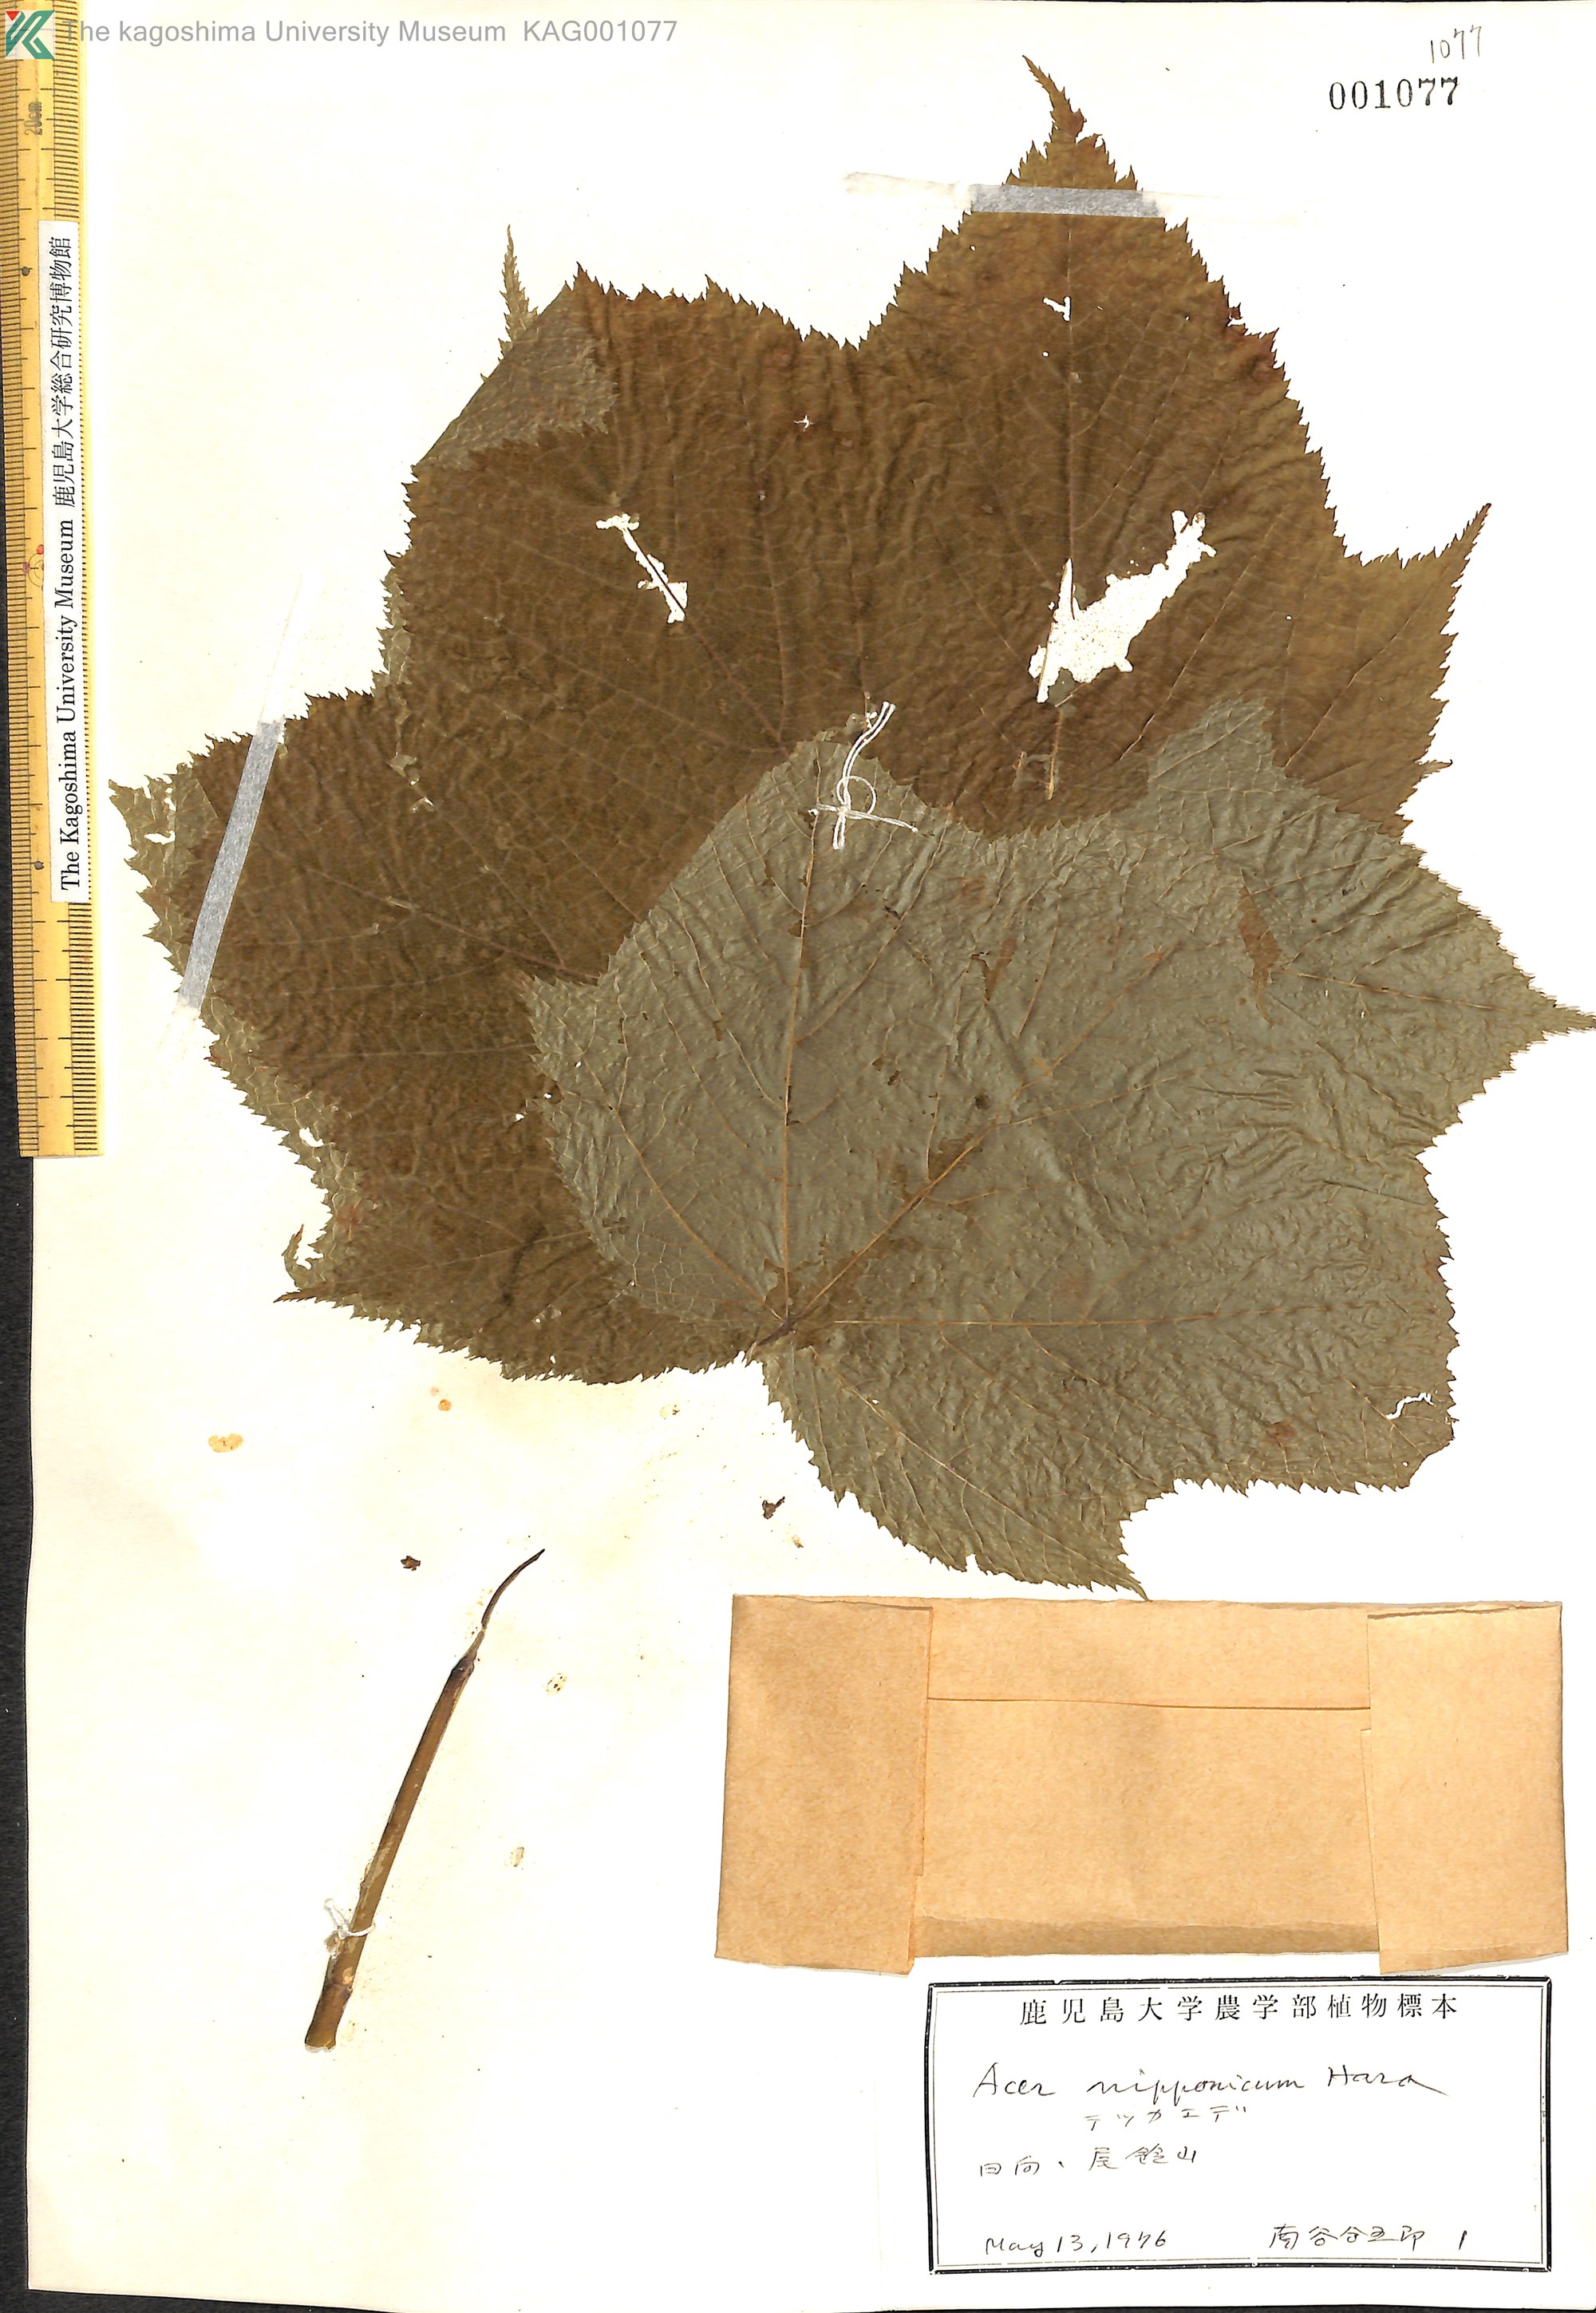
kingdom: Plantae
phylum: Tracheophyta
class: Magnoliopsida
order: Sapindales
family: Sapindaceae
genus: Acer
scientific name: Acer nipponicum
